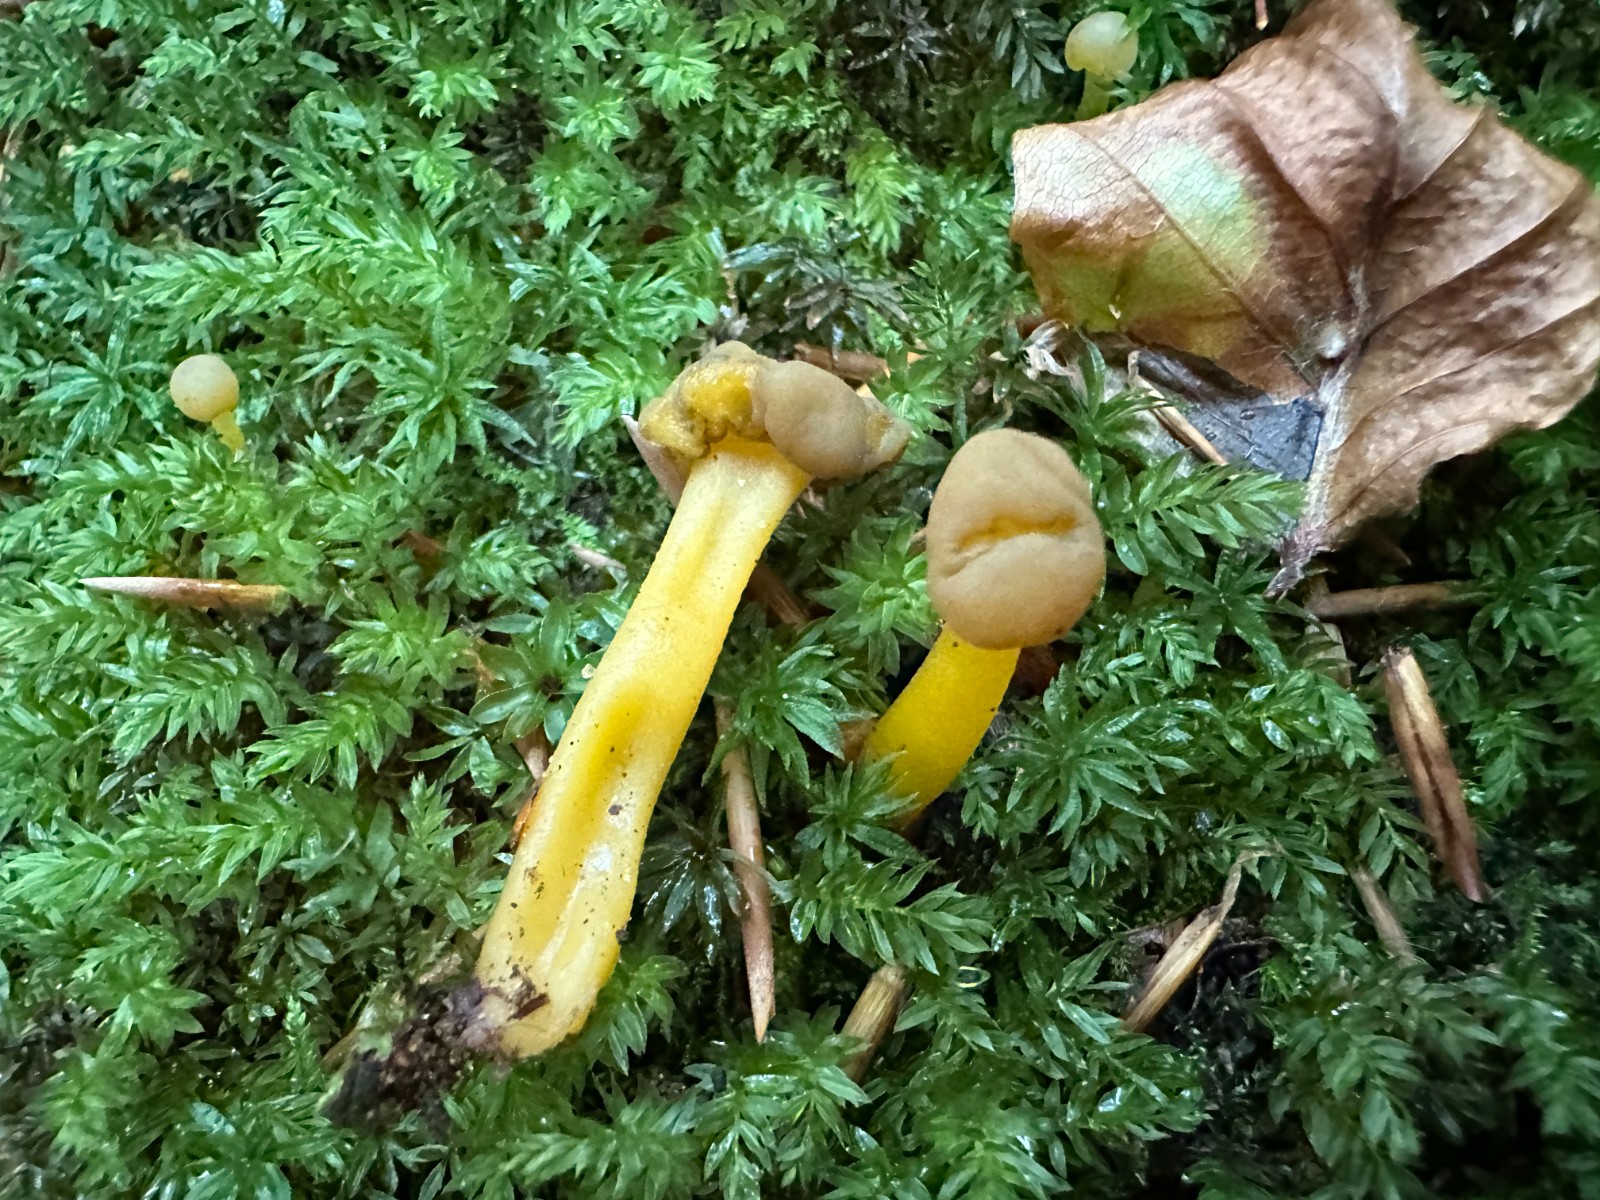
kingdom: Fungi
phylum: Ascomycota
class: Leotiomycetes
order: Leotiales
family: Leotiaceae
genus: Leotia
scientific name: Leotia lubrica
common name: ravsvamp
